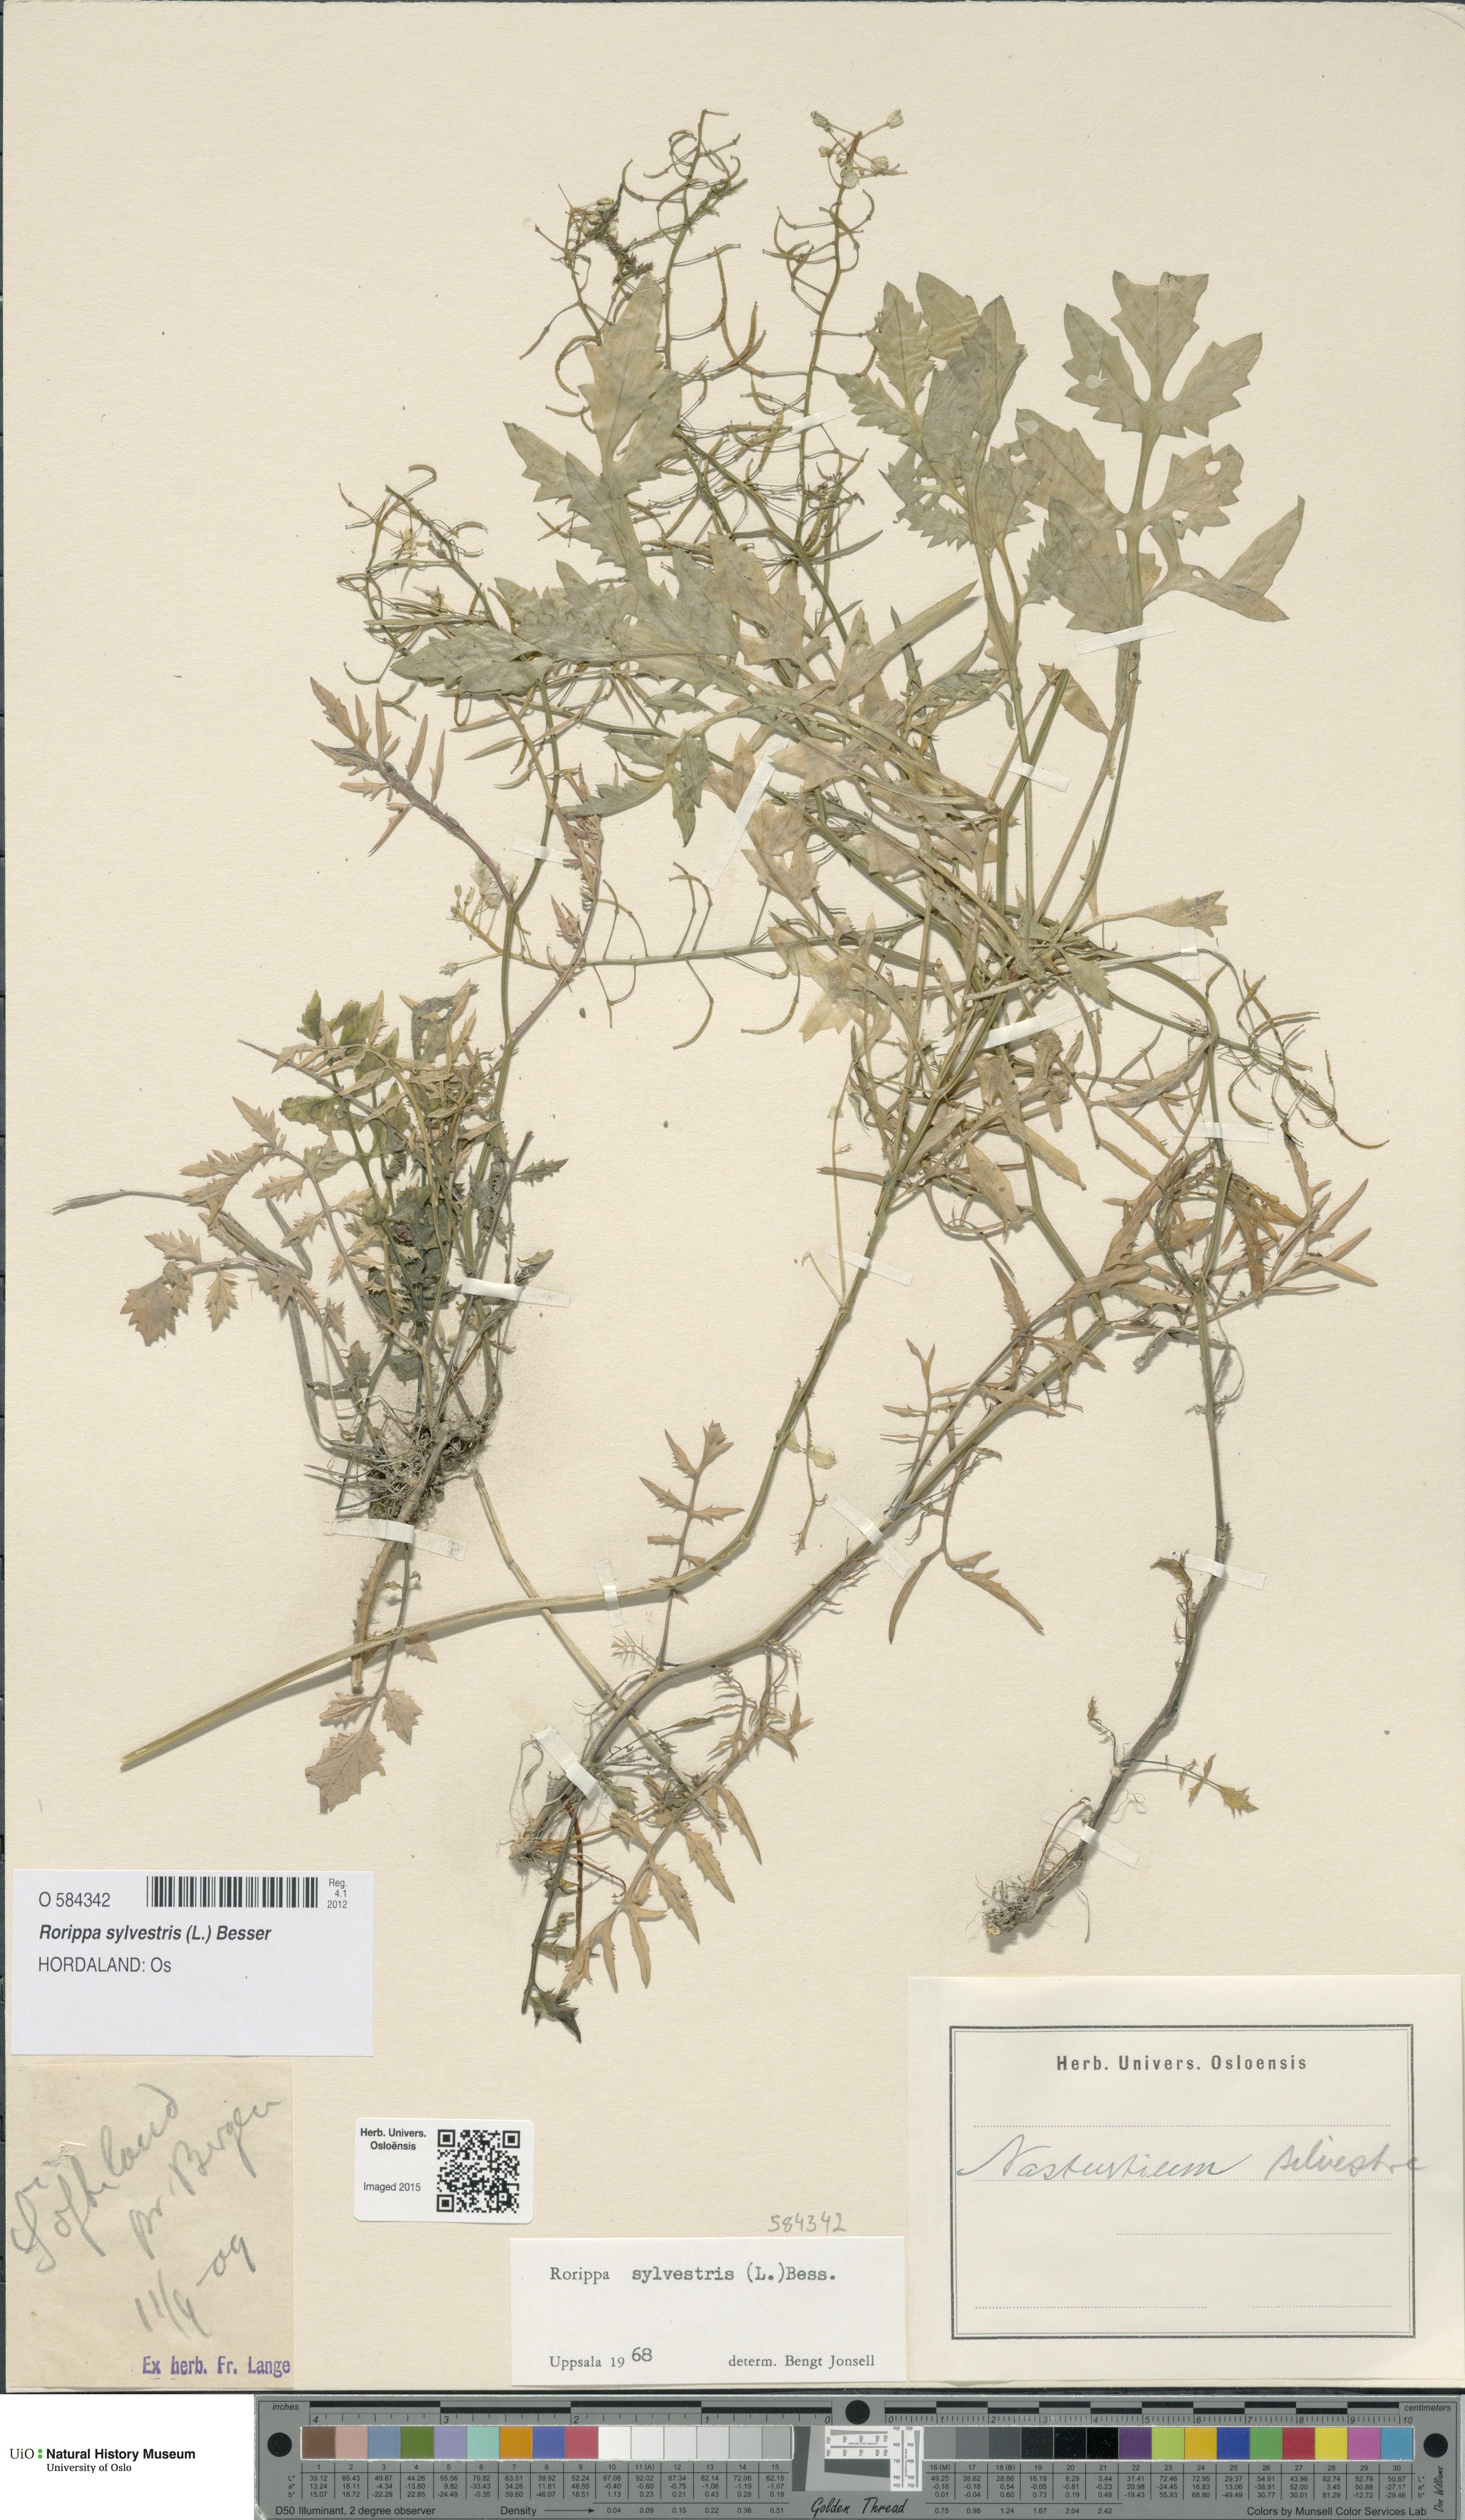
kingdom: Plantae
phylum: Tracheophyta
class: Magnoliopsida
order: Brassicales
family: Brassicaceae
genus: Rorippa
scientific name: Rorippa sylvestris
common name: Creeping yellowcress
